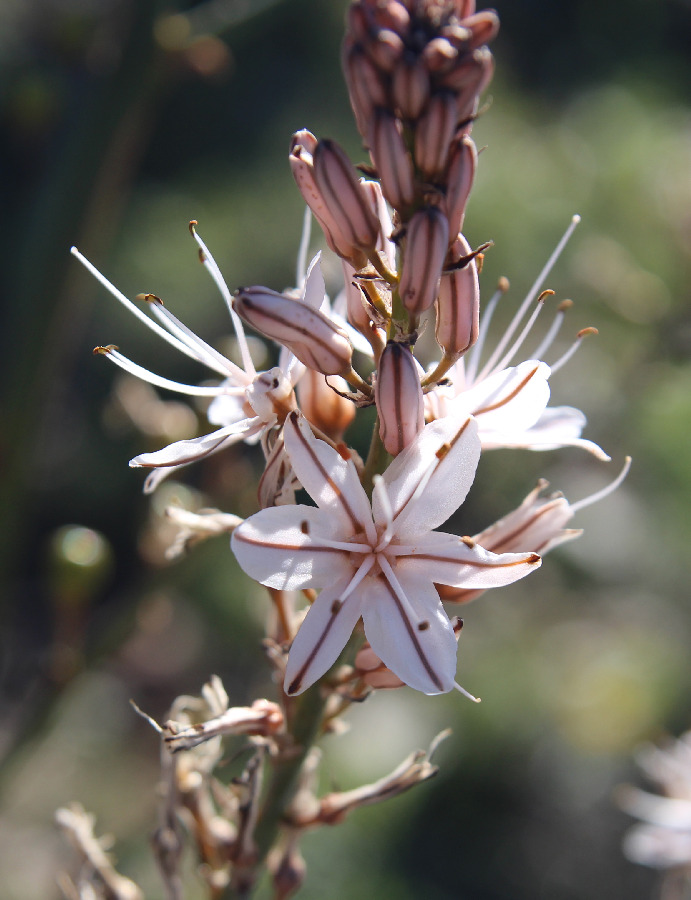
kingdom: Plantae
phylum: Tracheophyta
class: Liliopsida
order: Asparagales
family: Asphodelaceae
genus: Asphodelus
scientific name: Asphodelus ramosus
